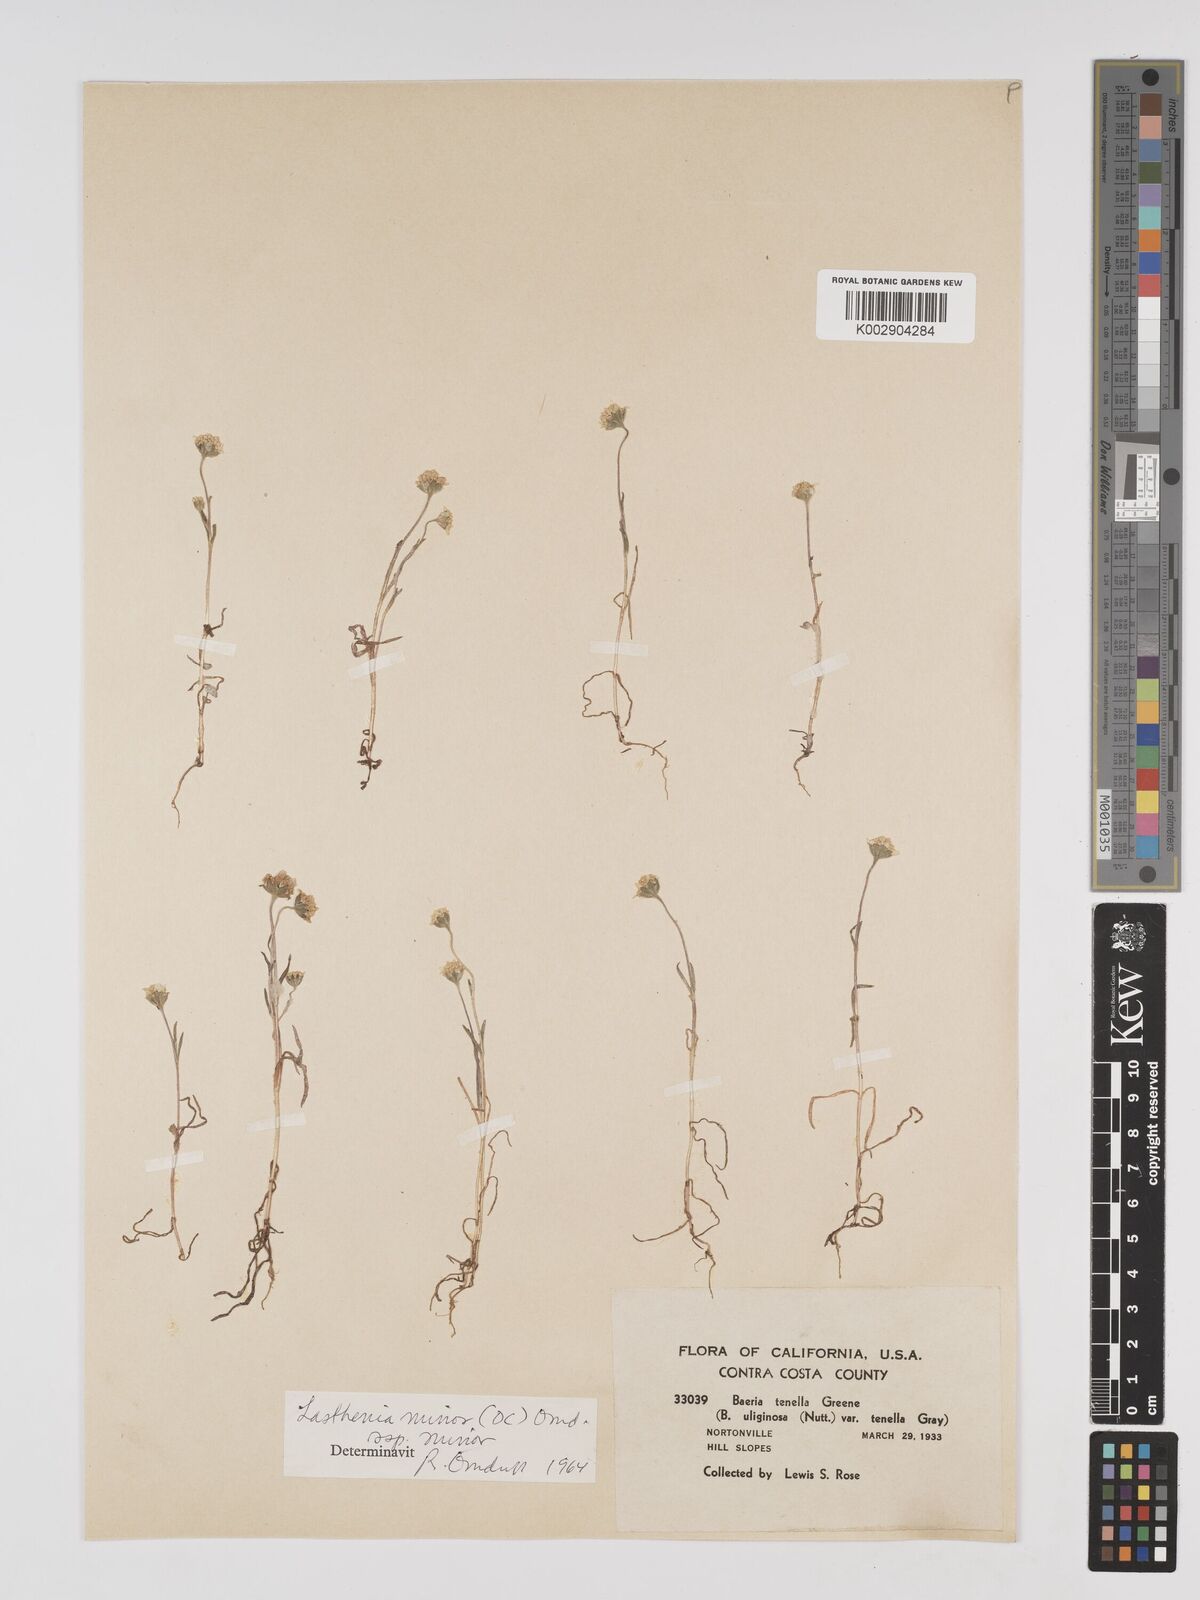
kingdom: Plantae
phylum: Tracheophyta
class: Magnoliopsida
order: Asterales
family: Asteraceae
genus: Lasthenia
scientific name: Lasthenia minor
